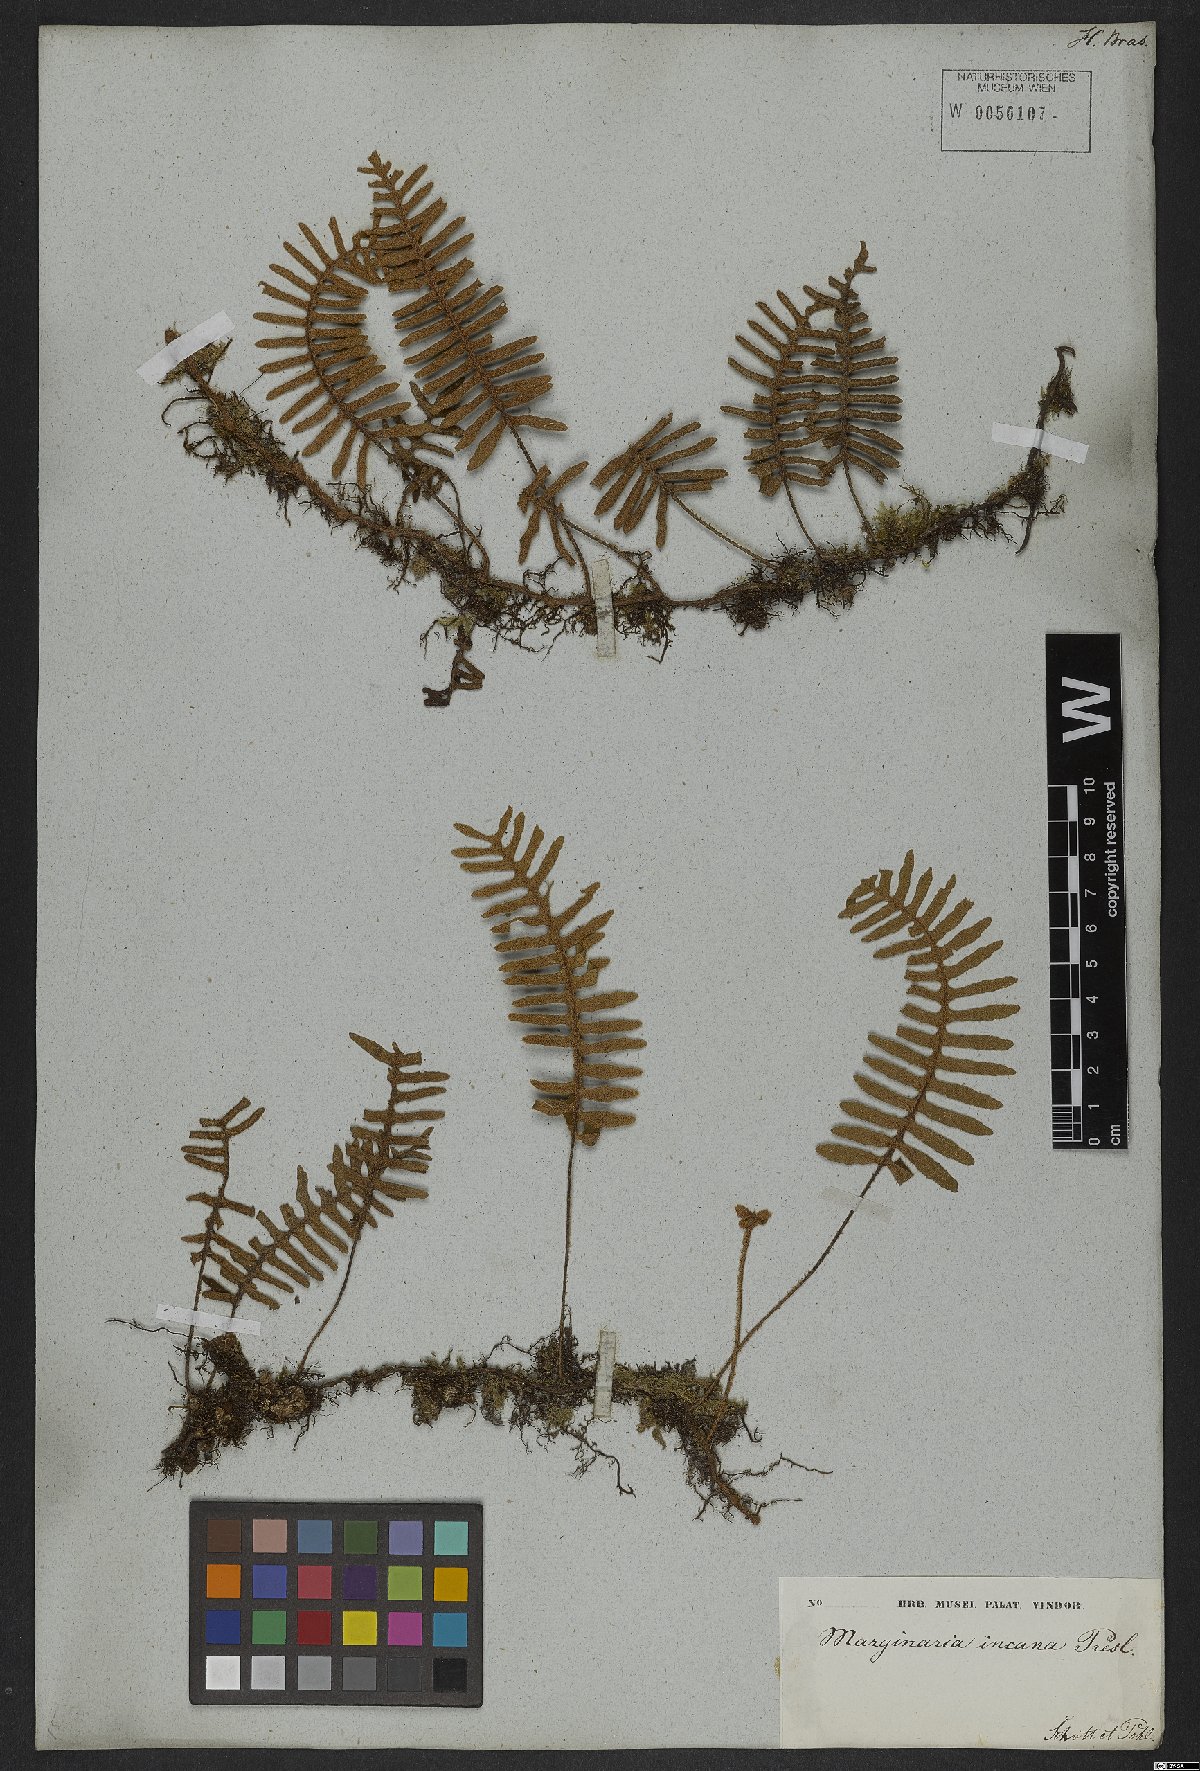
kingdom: Plantae
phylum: Tracheophyta
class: Polypodiopsida
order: Polypodiales
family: Polypodiaceae
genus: Pleopeltis
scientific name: Pleopeltis polypodioides
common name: Resurrection fern
